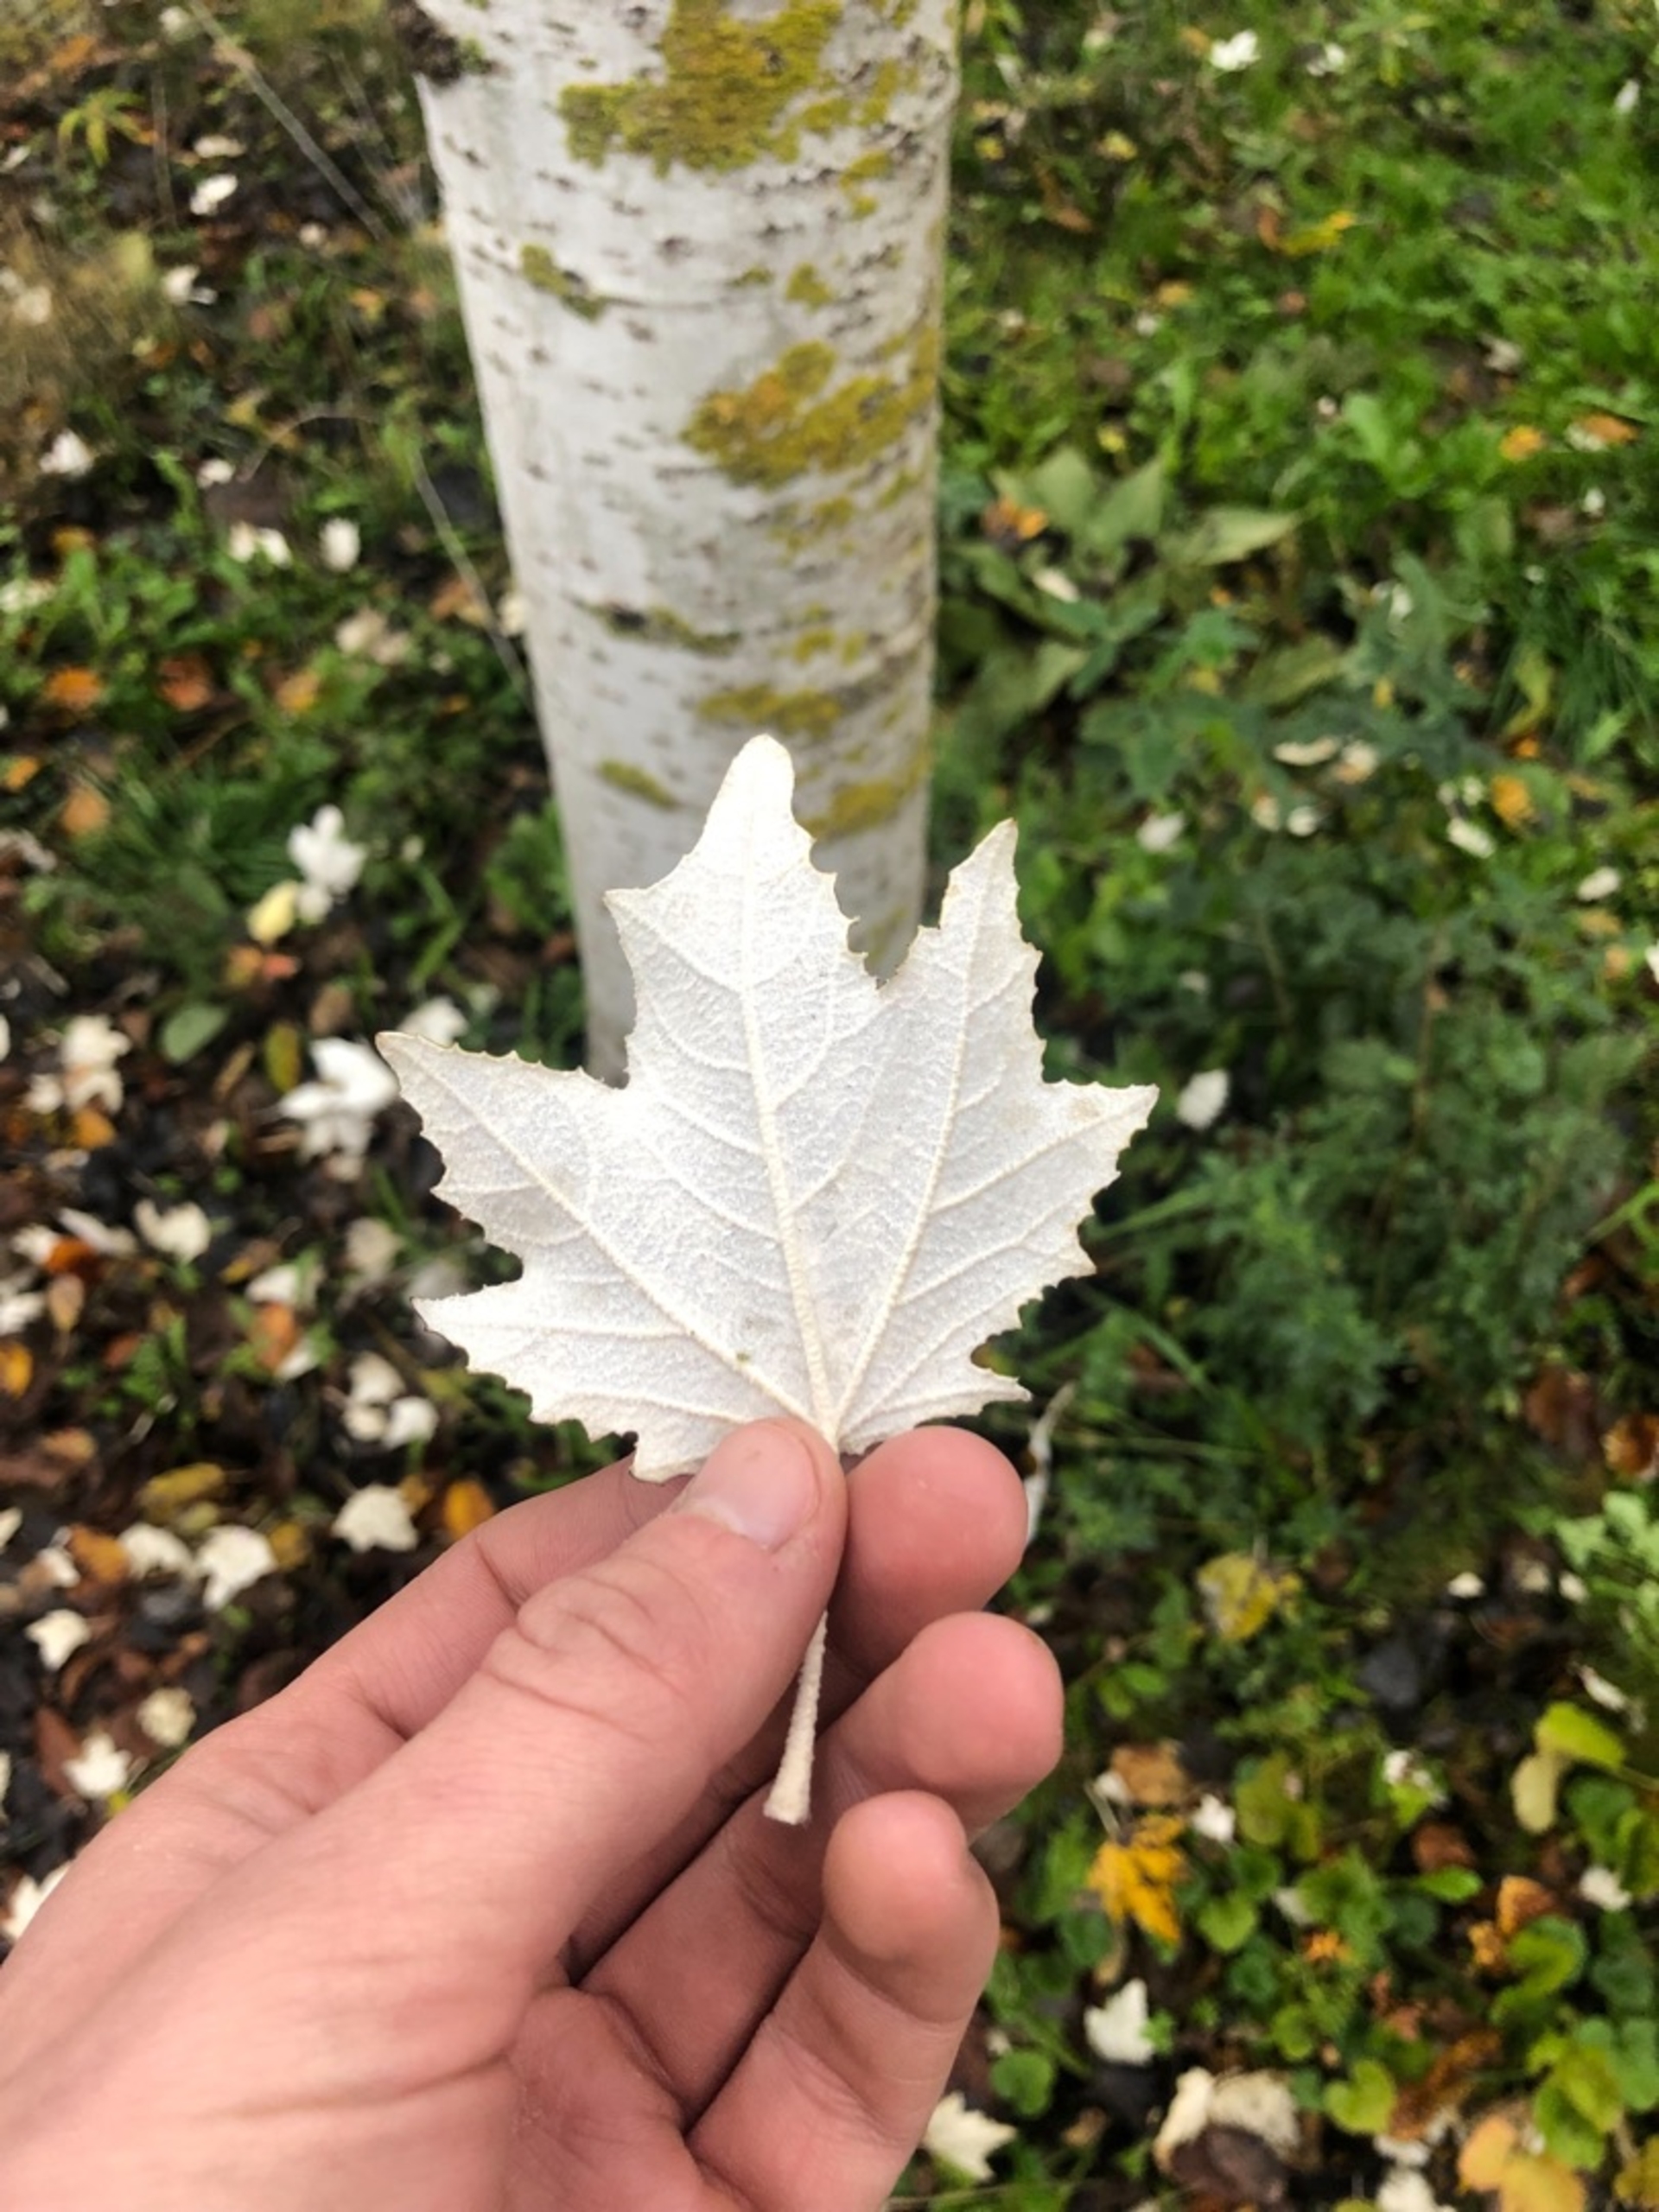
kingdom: Plantae
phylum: Tracheophyta
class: Magnoliopsida
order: Malpighiales
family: Salicaceae
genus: Populus
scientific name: Populus alba
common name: Sølv-poppel
